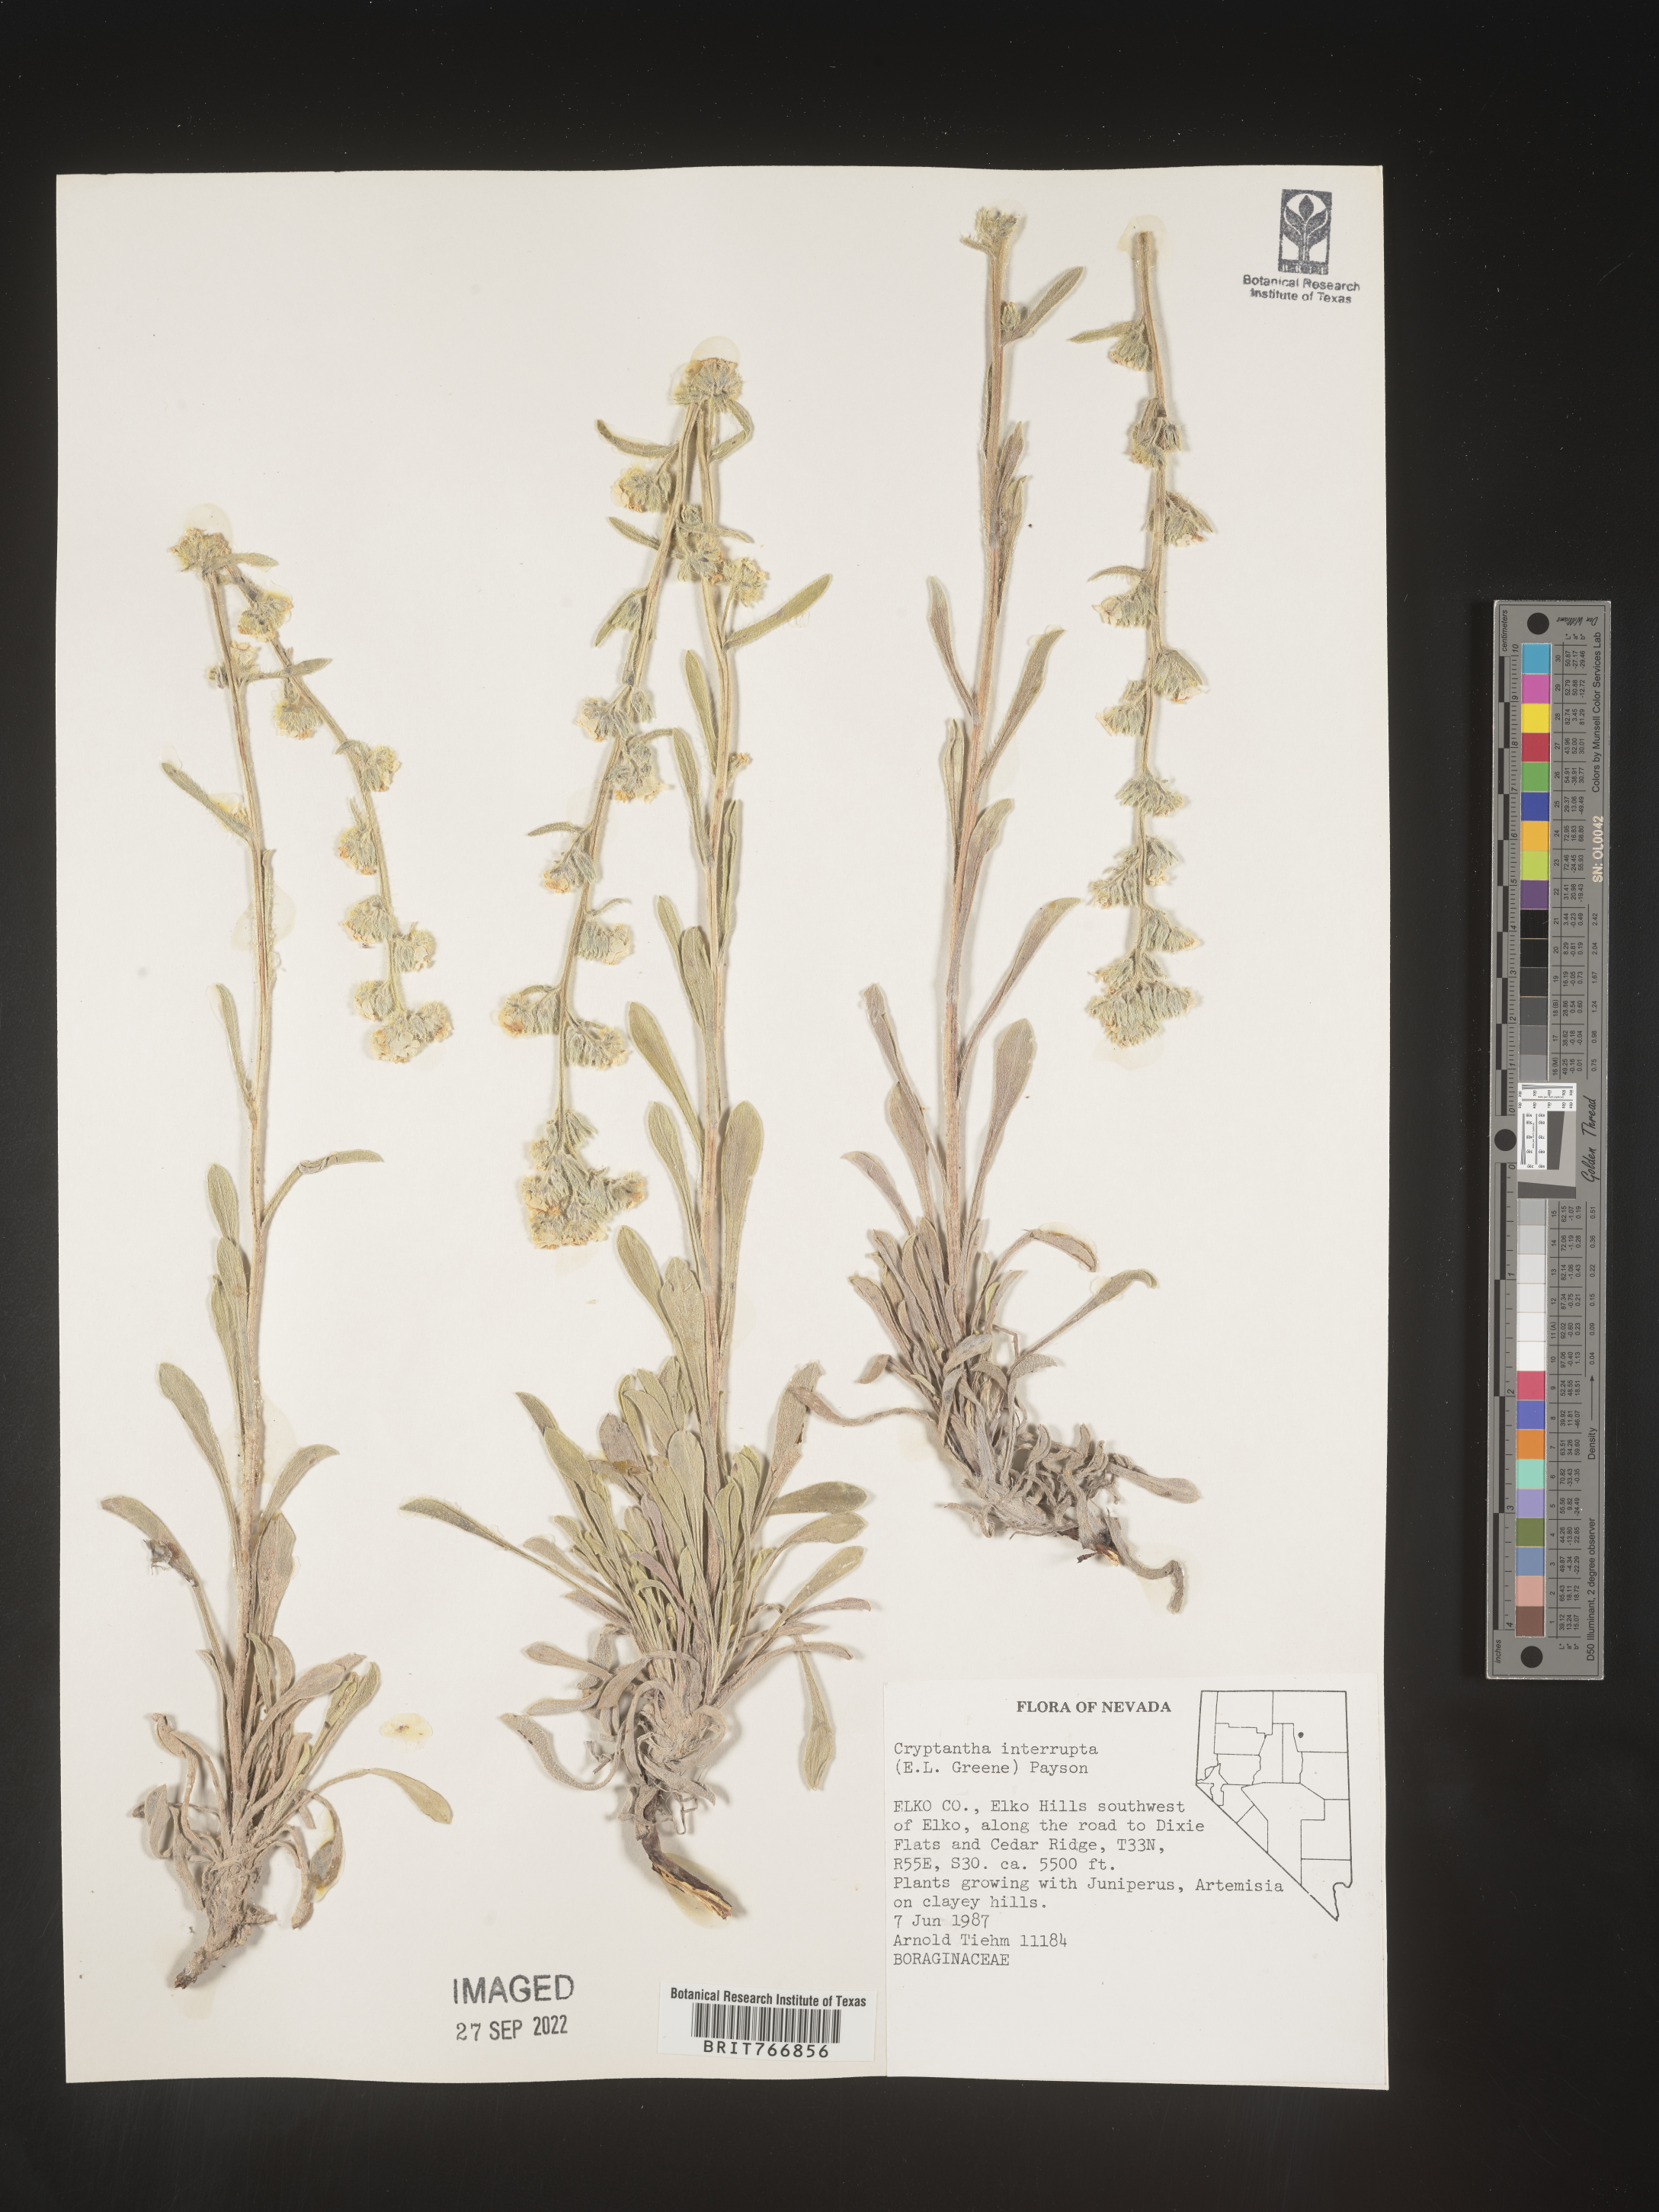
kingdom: Plantae
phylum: Tracheophyta
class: Magnoliopsida
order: Boraginales
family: Boraginaceae
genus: Cryptantha
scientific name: Cryptantha
